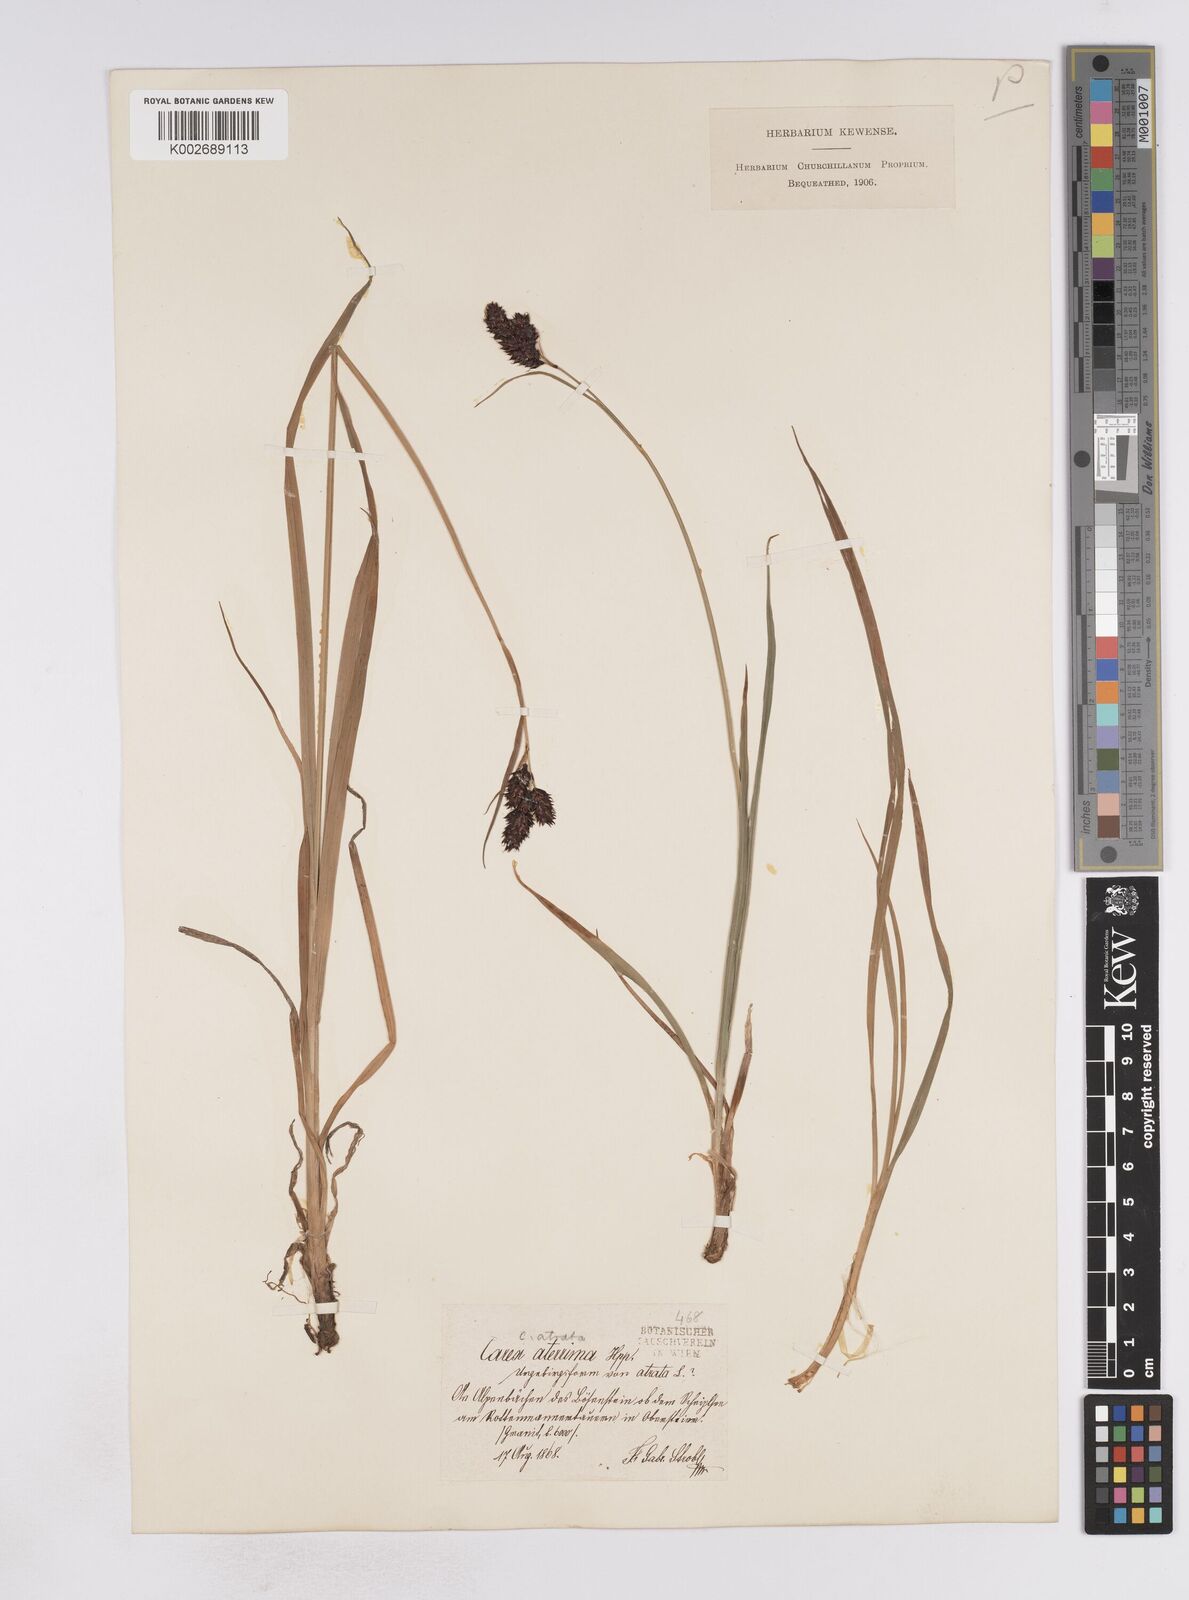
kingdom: Plantae
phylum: Tracheophyta
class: Liliopsida
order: Poales
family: Cyperaceae
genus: Carex
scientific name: Carex aterrima
